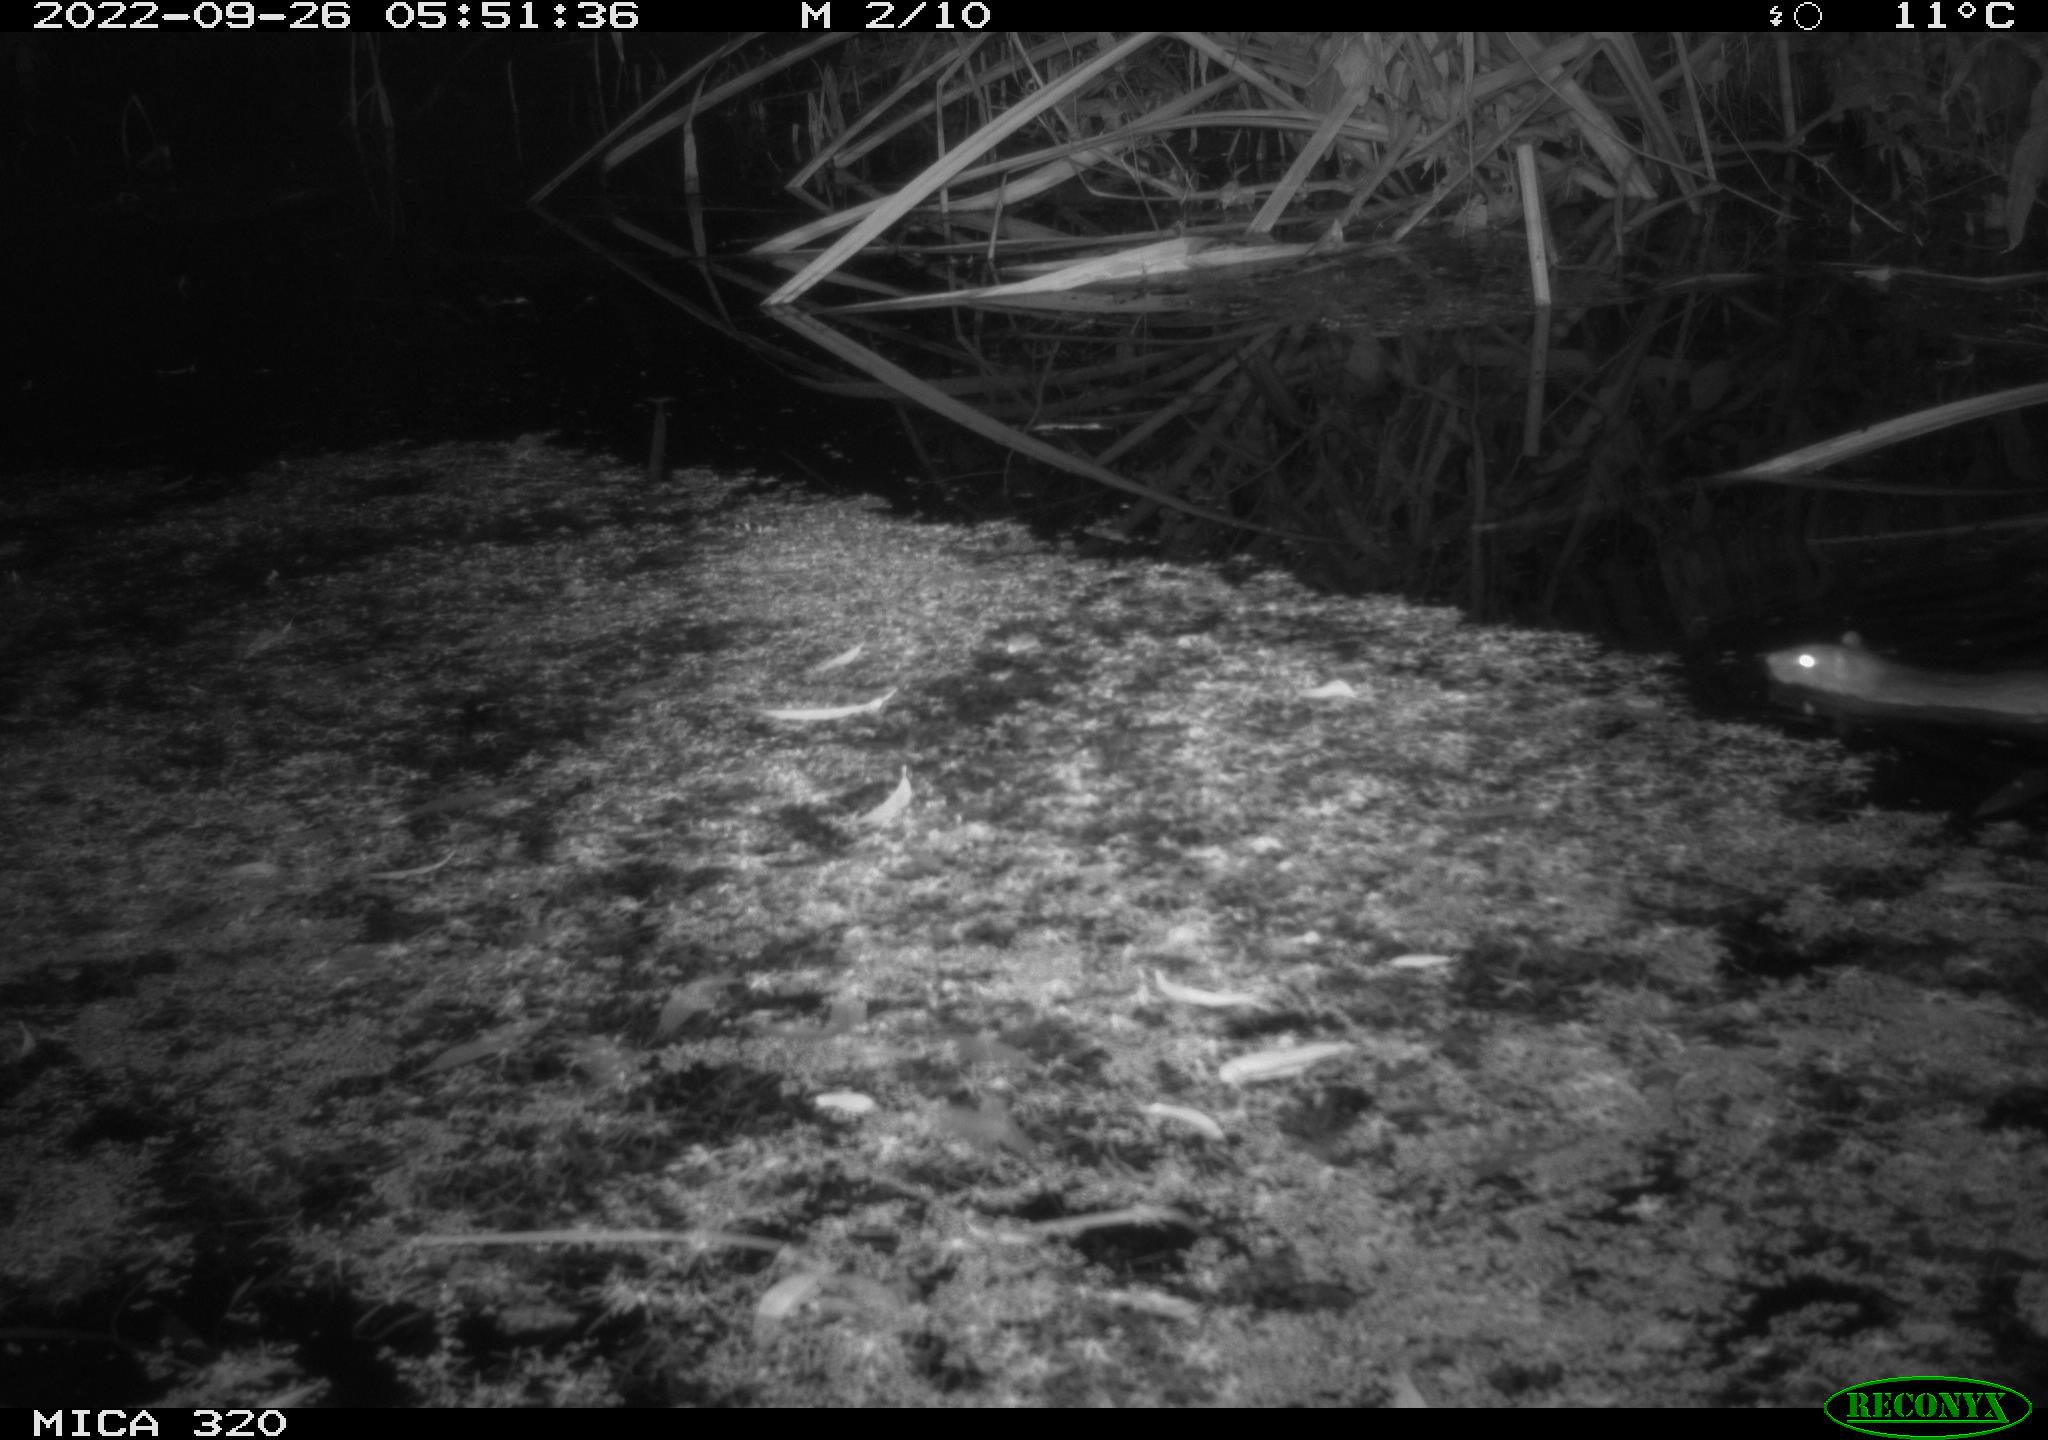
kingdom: Animalia
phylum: Chordata
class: Mammalia
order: Rodentia
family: Muridae
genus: Rattus
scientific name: Rattus norvegicus
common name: Brown rat
